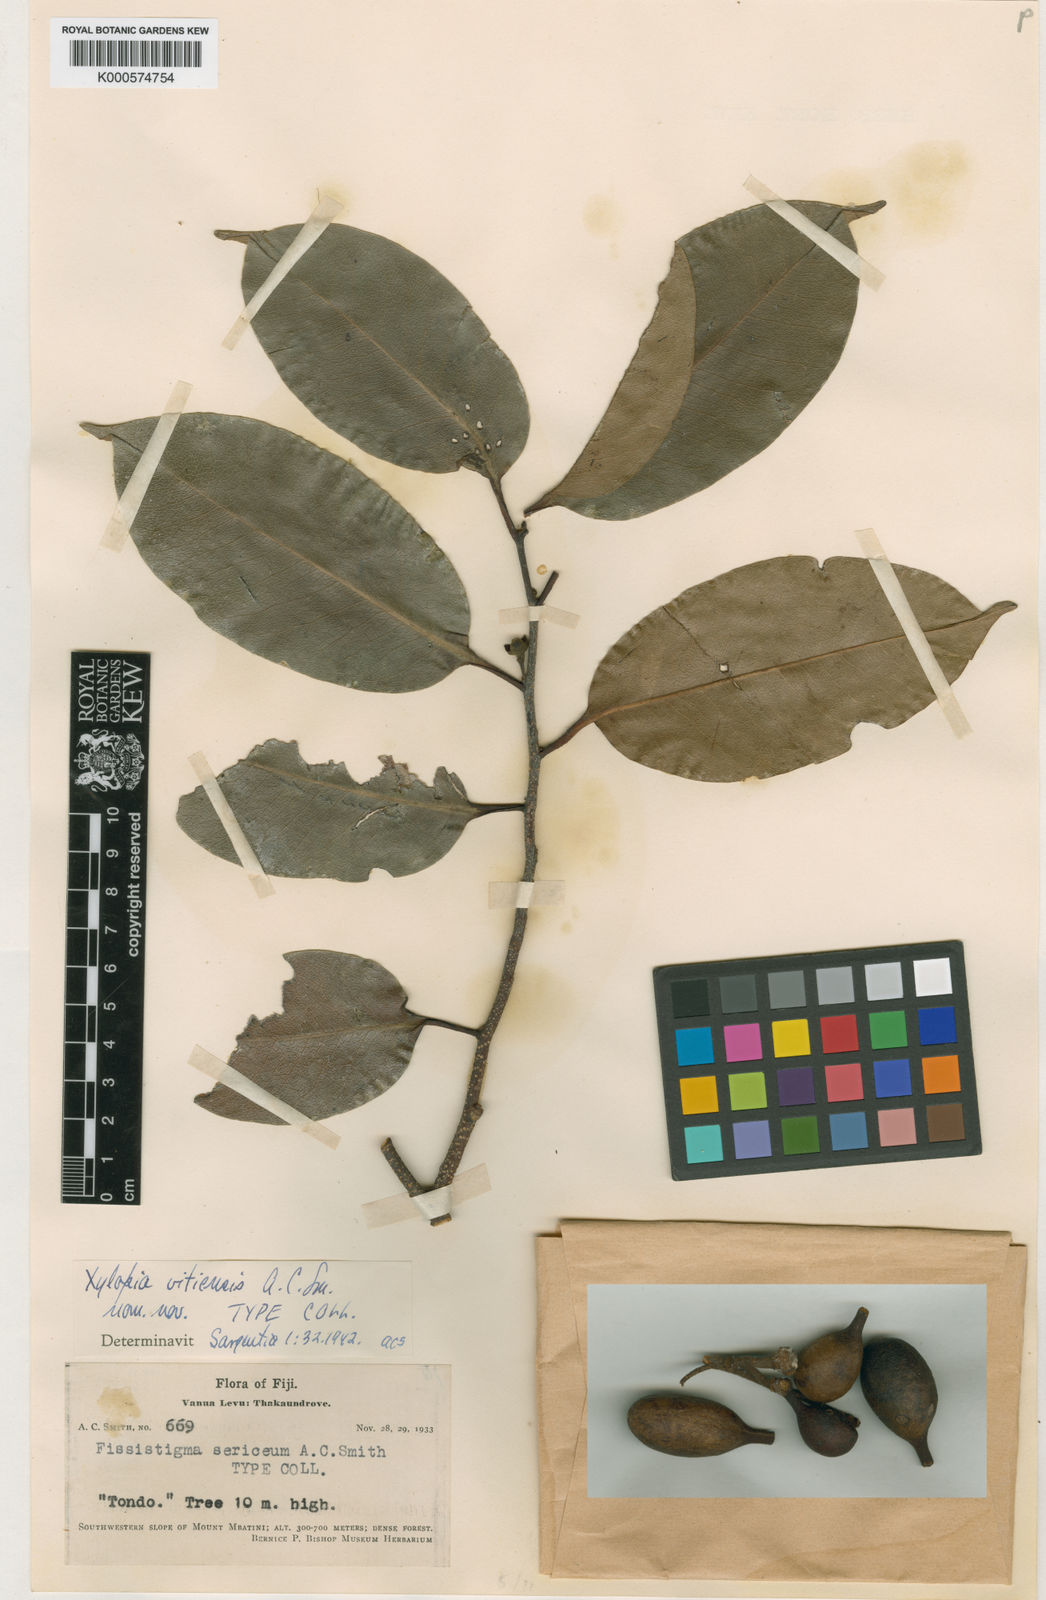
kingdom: Plantae
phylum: Tracheophyta
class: Magnoliopsida
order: Magnoliales
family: Annonaceae
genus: Xylopia
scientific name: Xylopia vitiensis
